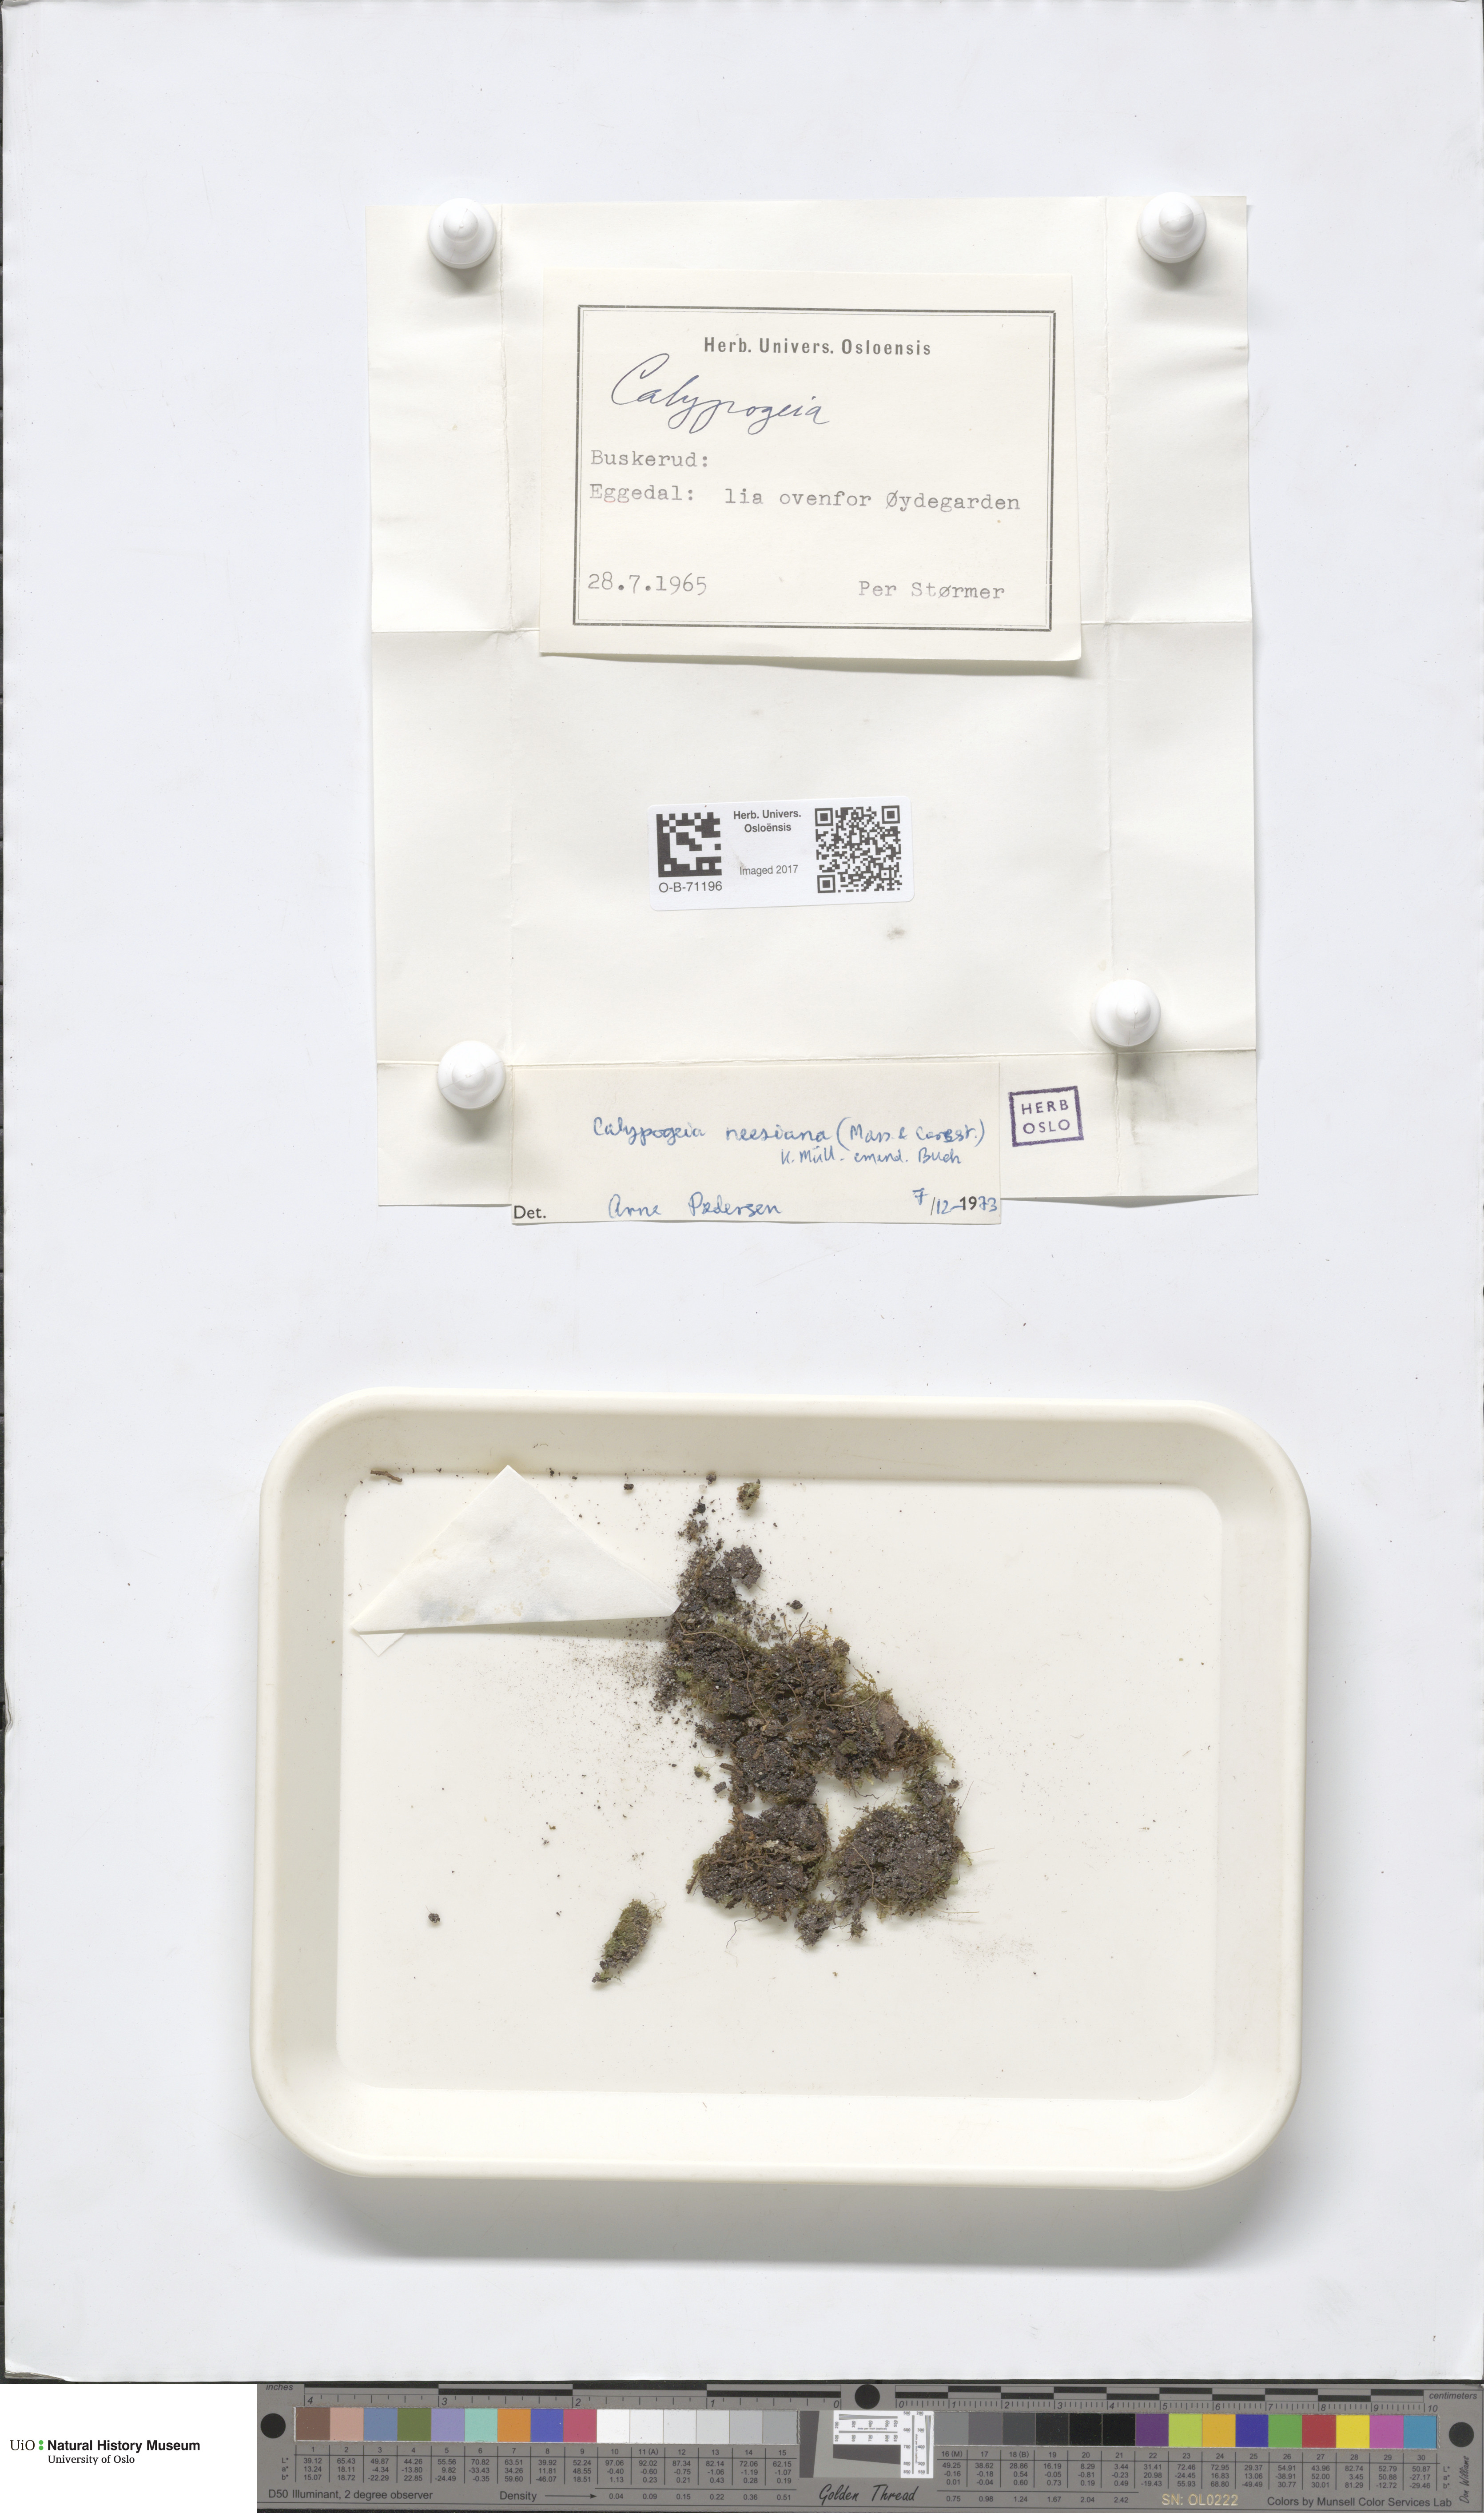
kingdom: Plantae
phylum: Marchantiophyta
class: Jungermanniopsida
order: Jungermanniales
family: Calypogeiaceae
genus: Calypogeia
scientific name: Calypogeia neesiana
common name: Nees  pouchwort
